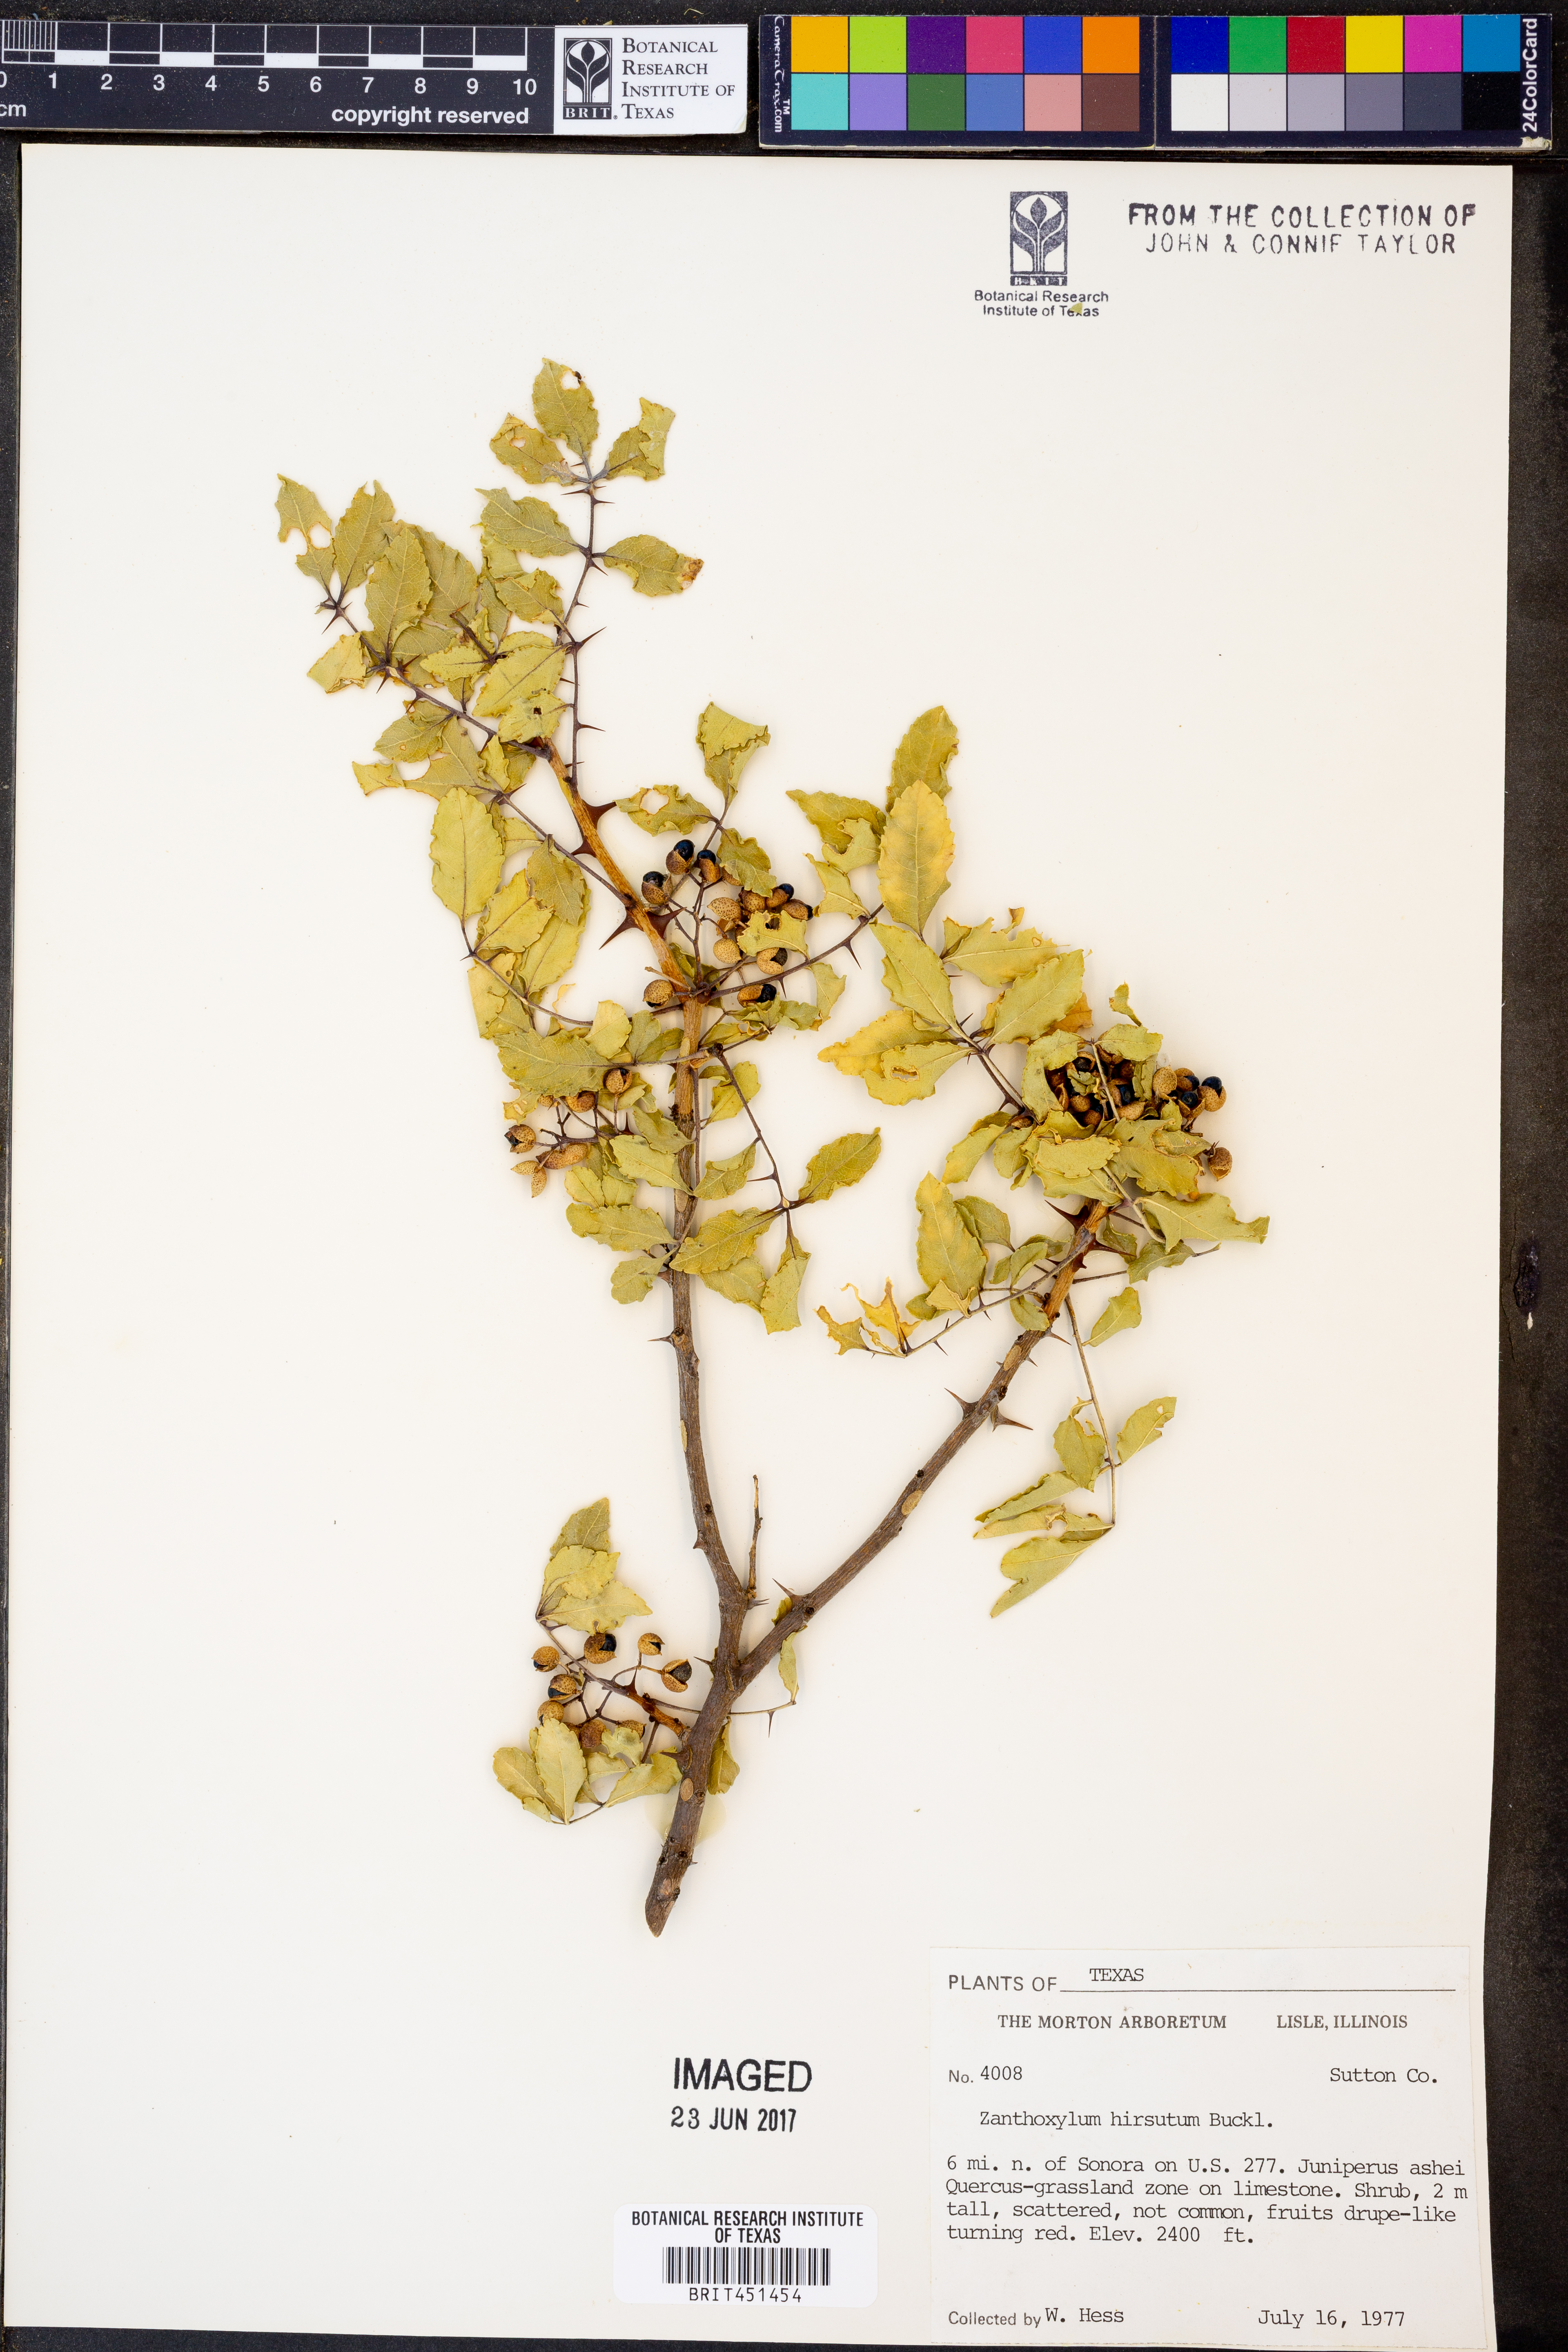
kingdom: Plantae
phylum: Tracheophyta
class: Magnoliopsida
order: Sapindales
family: Rutaceae
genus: Zanthoxylum
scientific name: Zanthoxylum clava-herculis
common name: Hercules'-club
